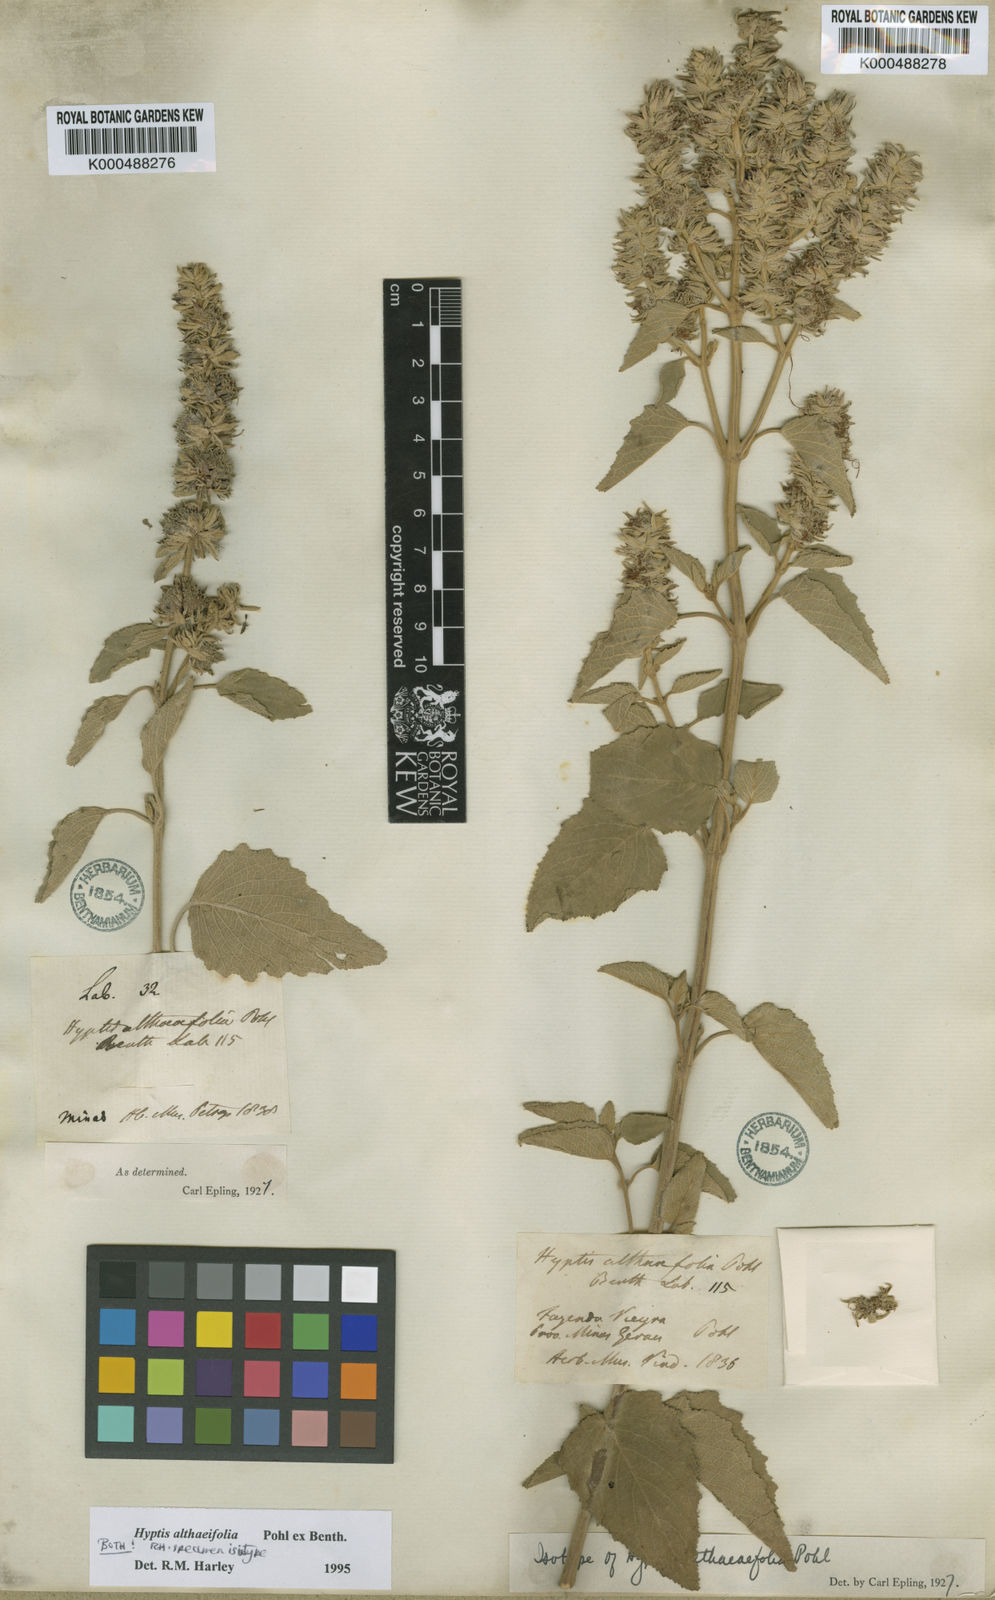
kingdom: Plantae
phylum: Tracheophyta
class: Magnoliopsida
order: Lamiales
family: Lamiaceae
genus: Cantinoa
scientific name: Cantinoa althaeifolia
